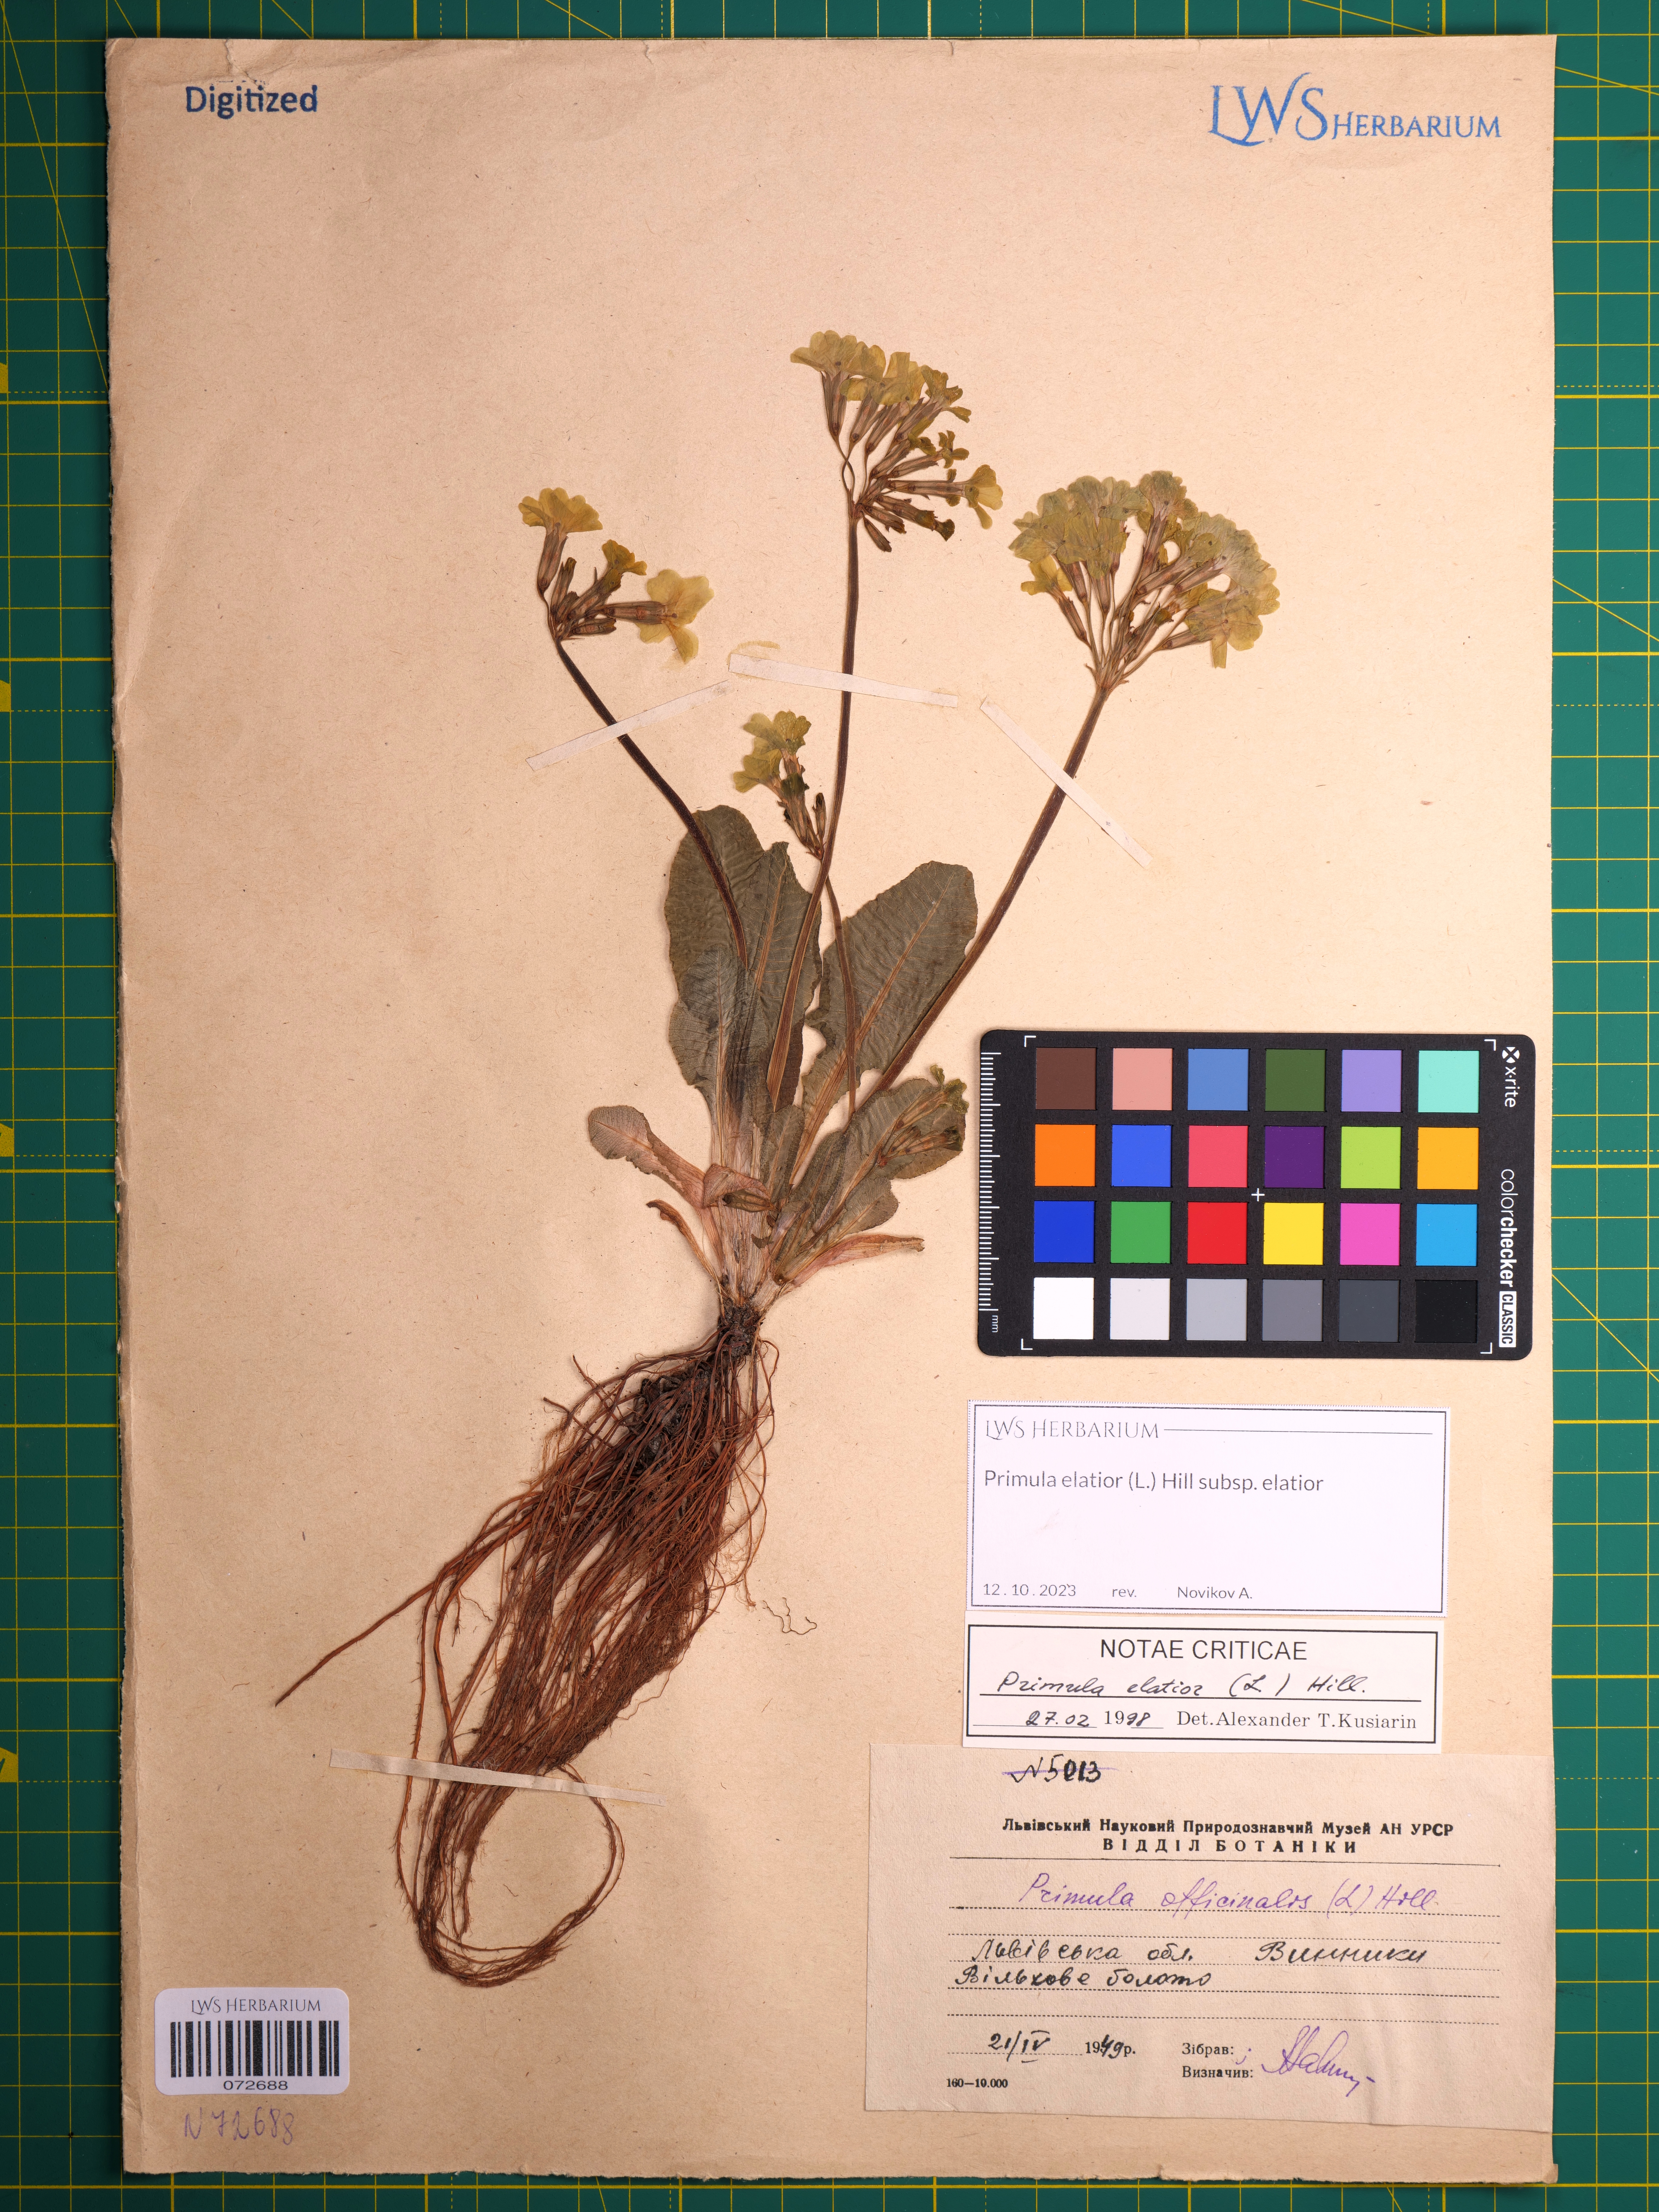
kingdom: Plantae
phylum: Tracheophyta
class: Magnoliopsida
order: Ericales
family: Primulaceae
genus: Primula
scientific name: Primula elatior
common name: Oxlip
